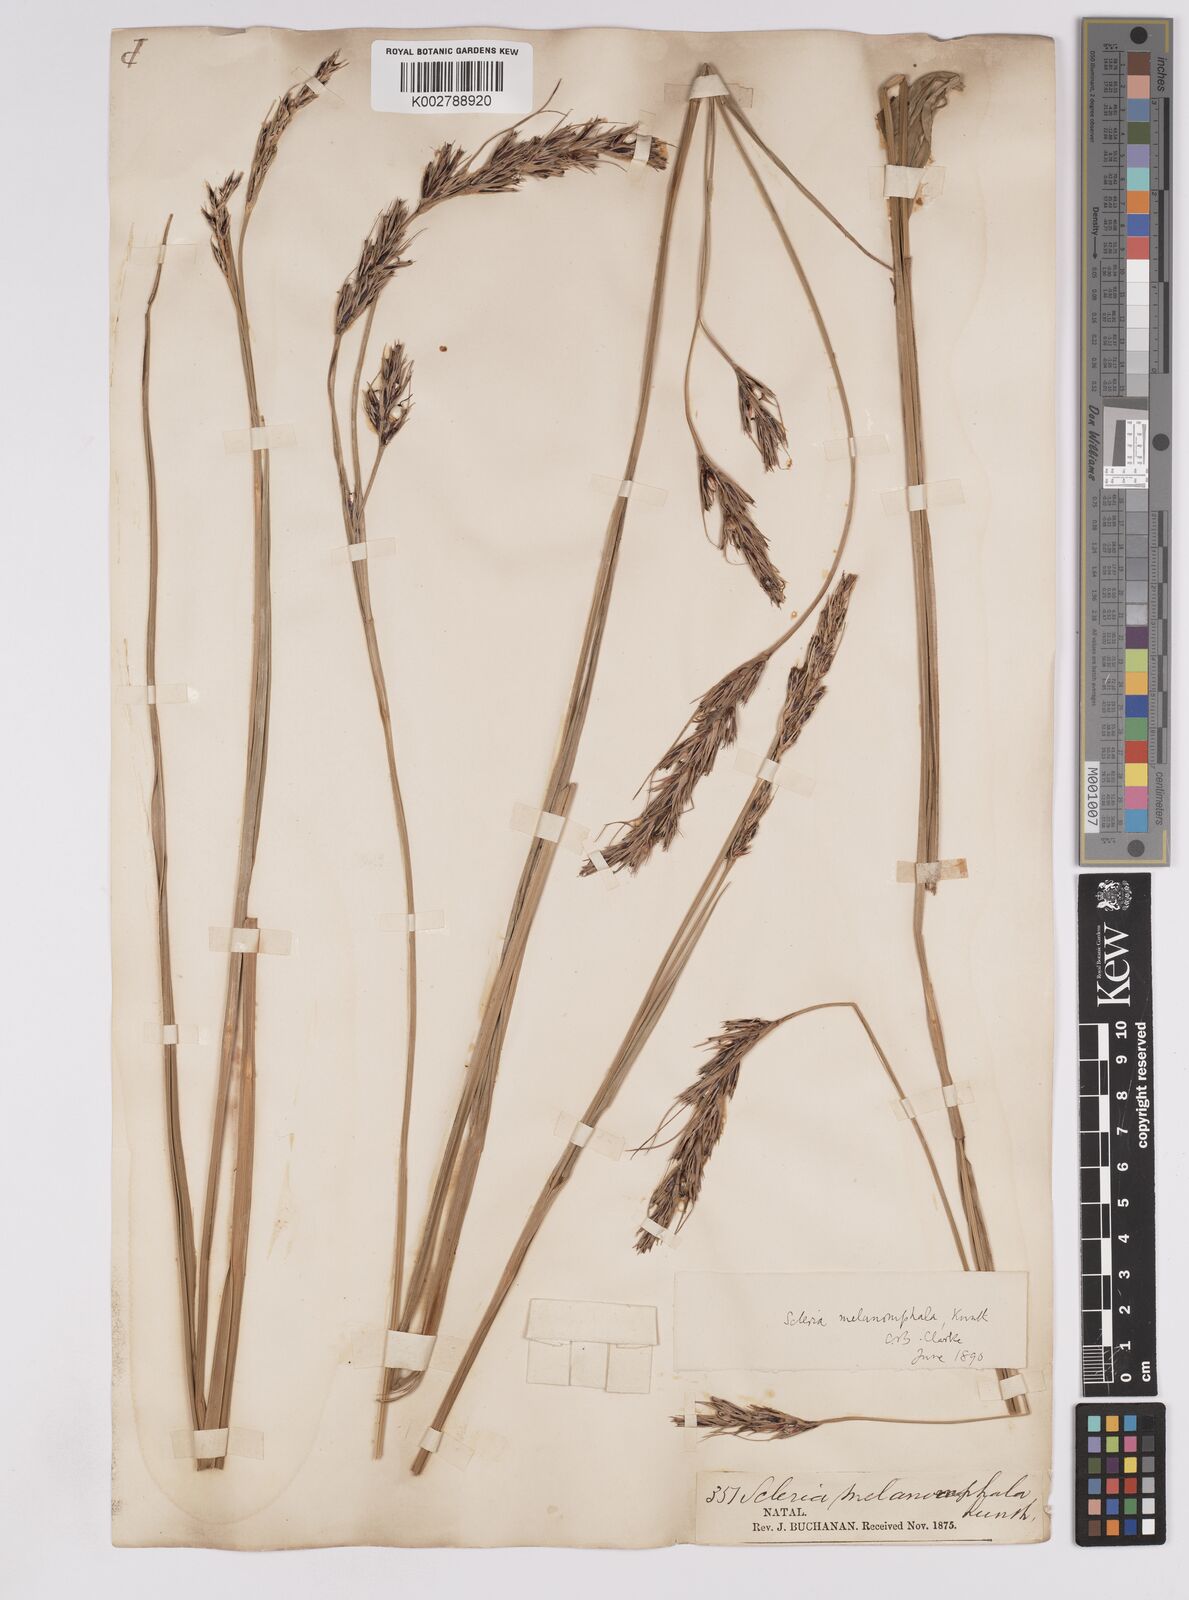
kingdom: Plantae
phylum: Tracheophyta
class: Liliopsida
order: Poales
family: Cyperaceae
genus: Scleria
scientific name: Scleria melanomphala
